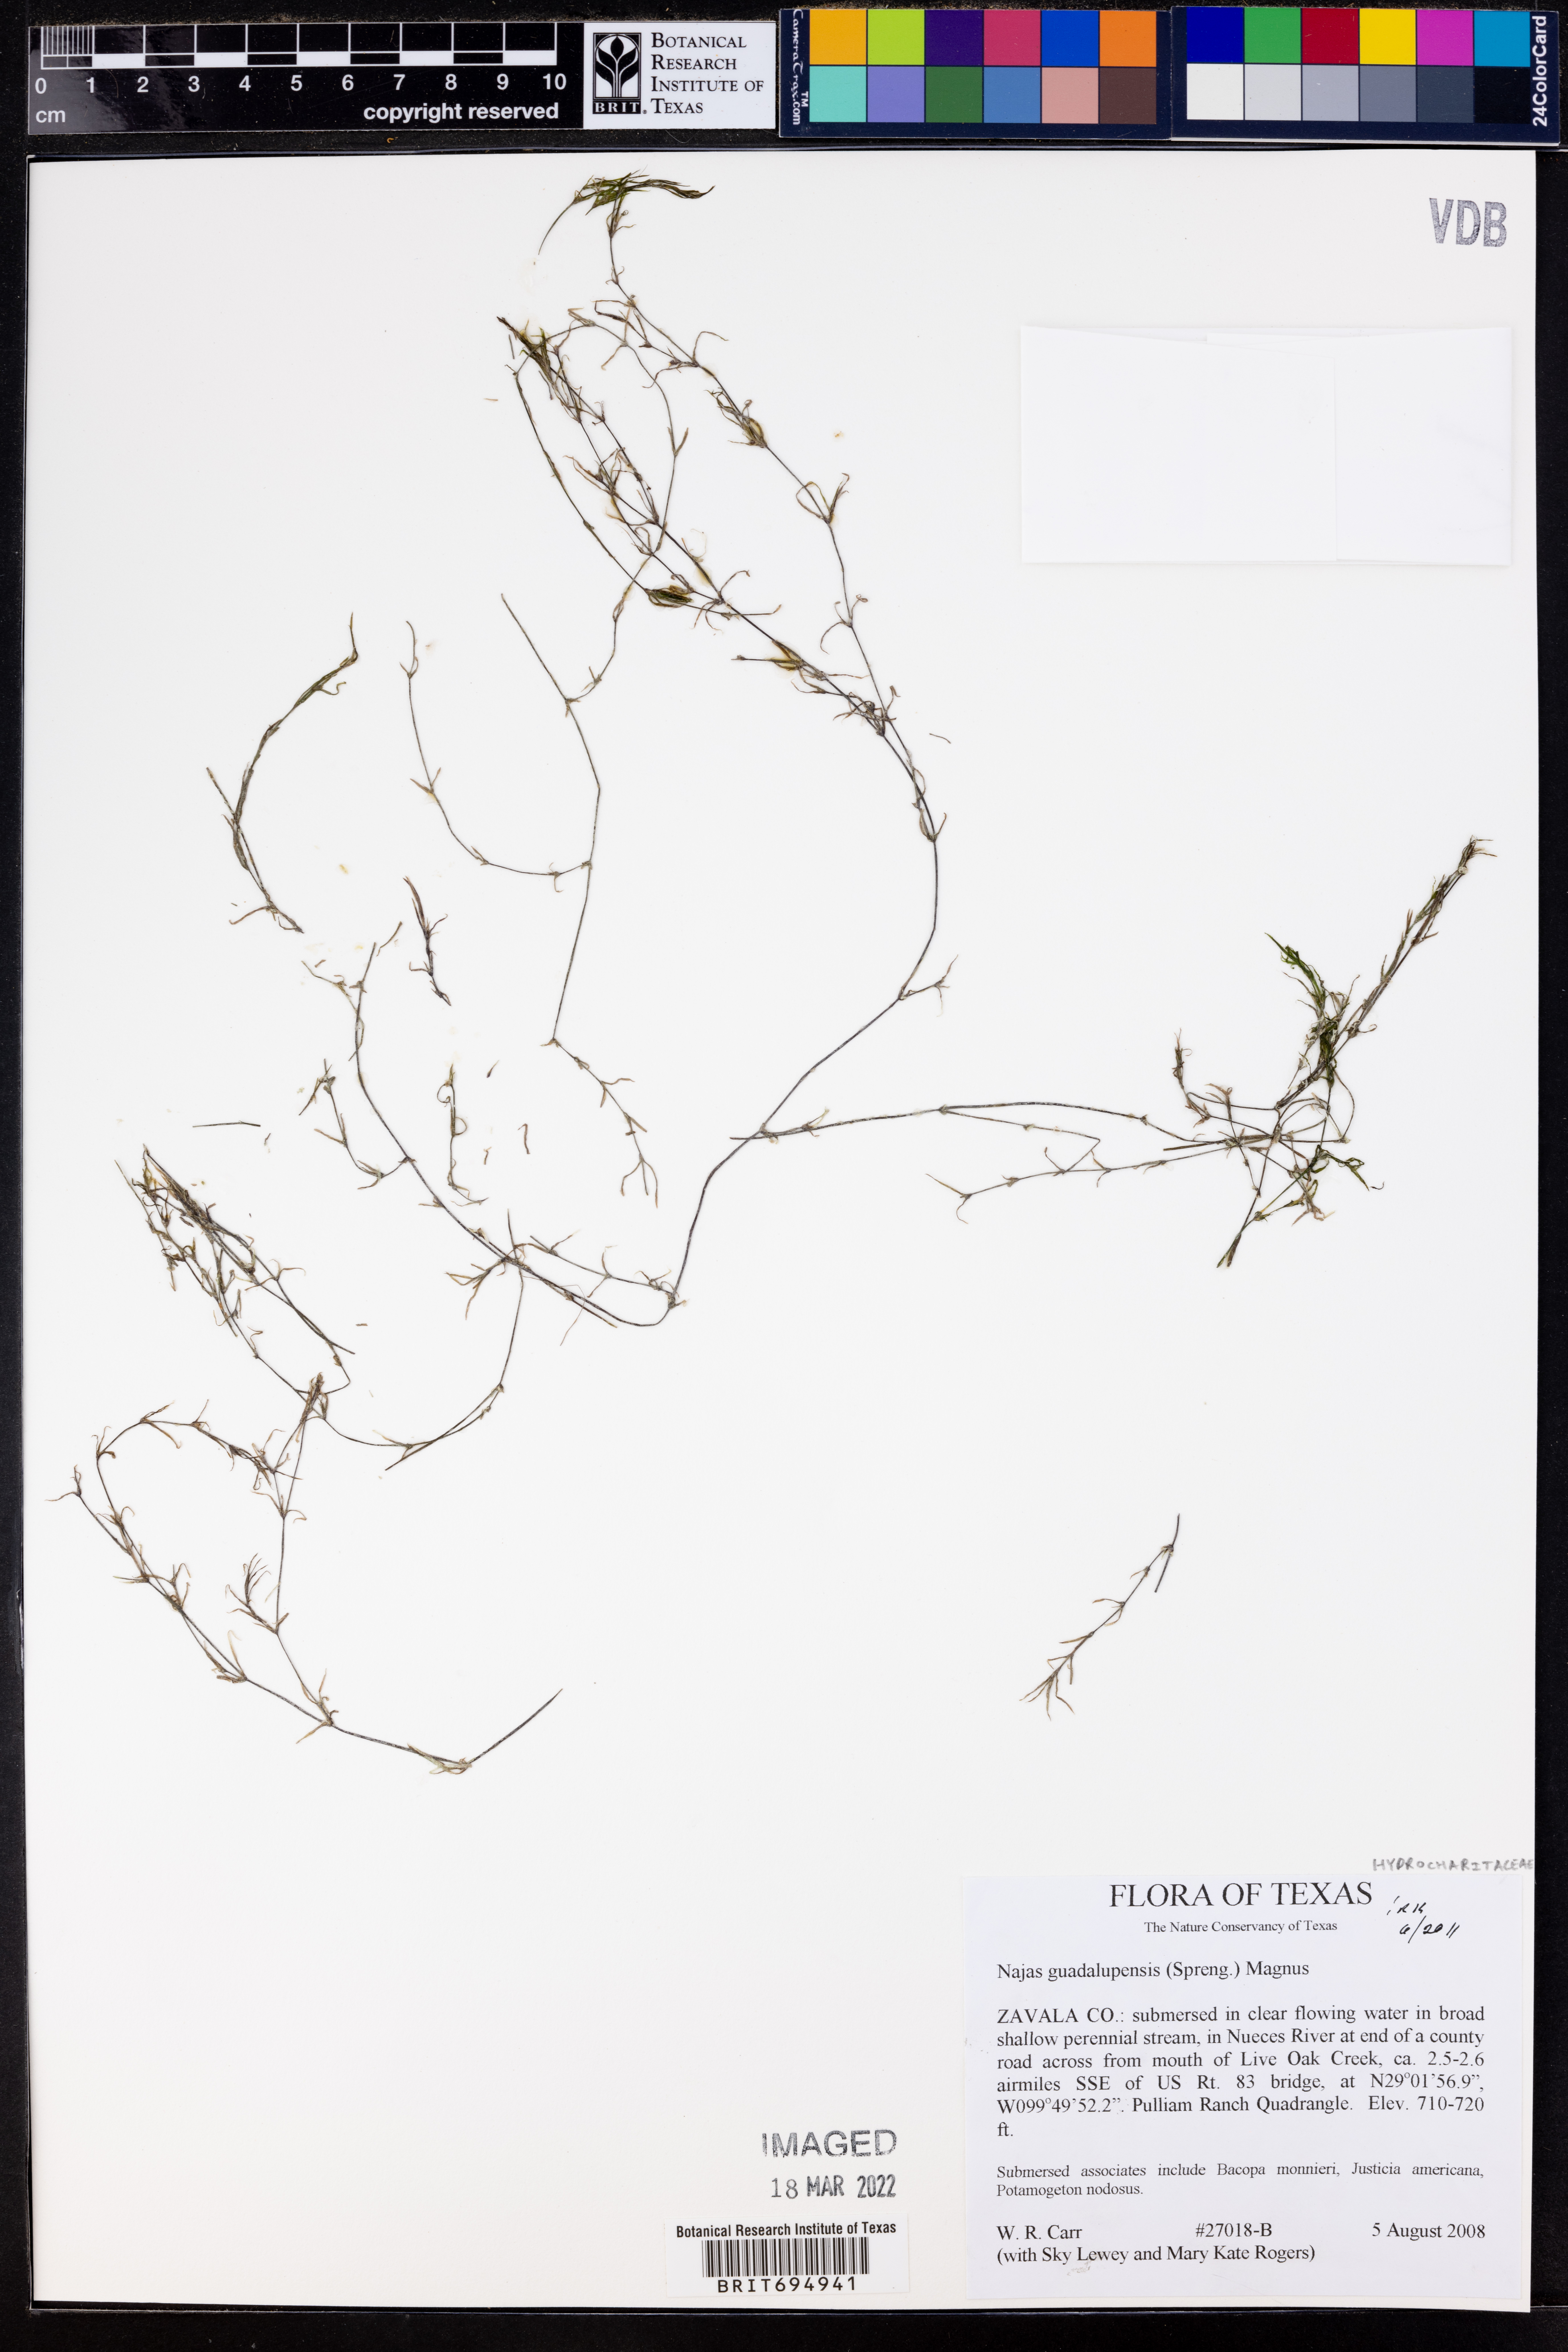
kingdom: Plantae
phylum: Tracheophyta
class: Liliopsida
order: Alismatales
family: Hydrocharitaceae
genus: Najas
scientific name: Najas guadalupensis
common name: Southern naiad
